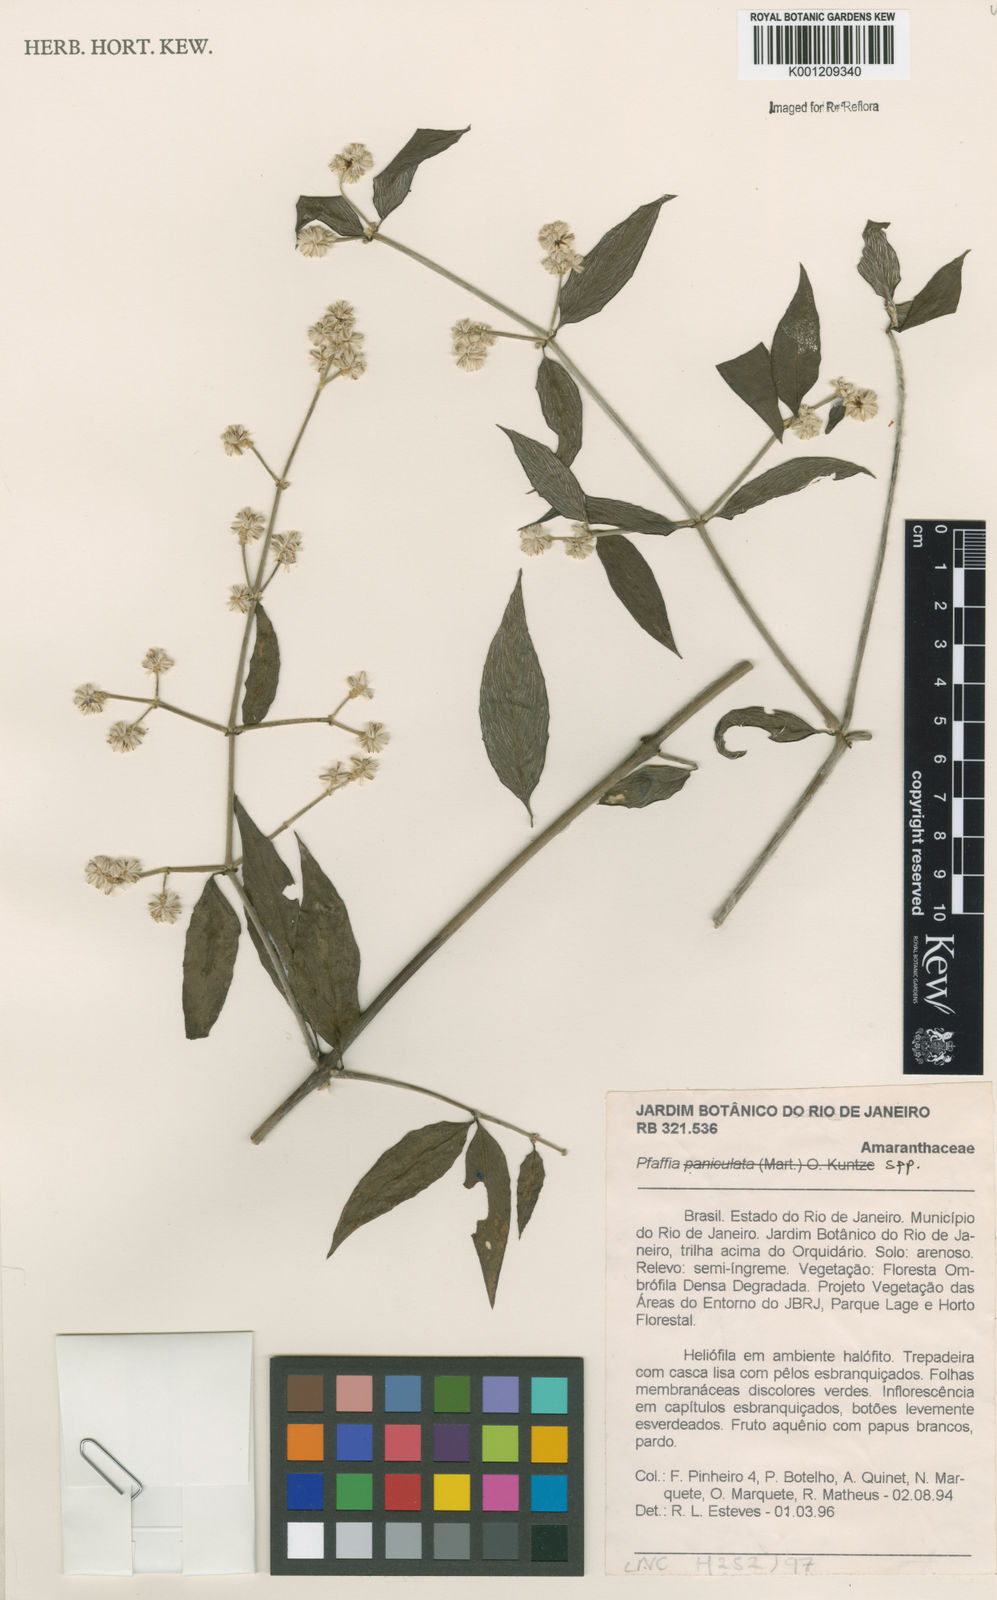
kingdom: Plantae
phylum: Tracheophyta
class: Magnoliopsida
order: Caryophyllales
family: Amaranthaceae
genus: Pfaffia
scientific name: Pfaffia
